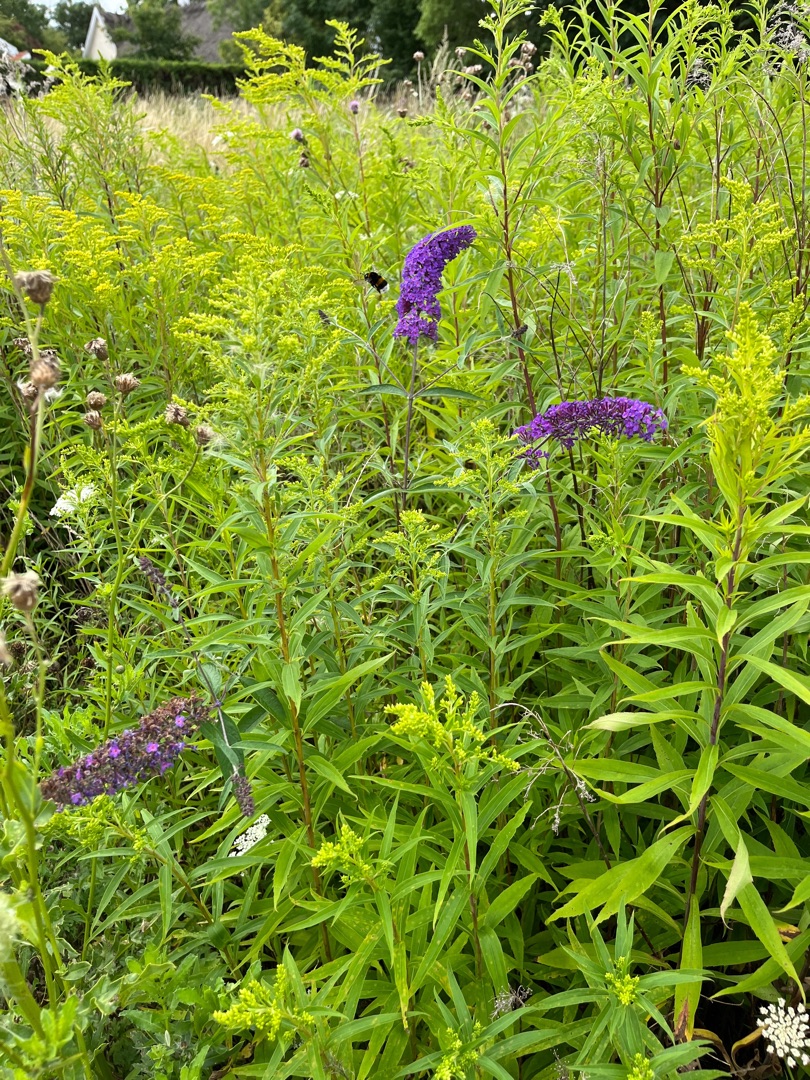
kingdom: Plantae
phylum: Tracheophyta
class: Magnoliopsida
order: Lamiales
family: Scrophulariaceae
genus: Buddleja
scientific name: Buddleja davidii
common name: Sommerfuglebusk
